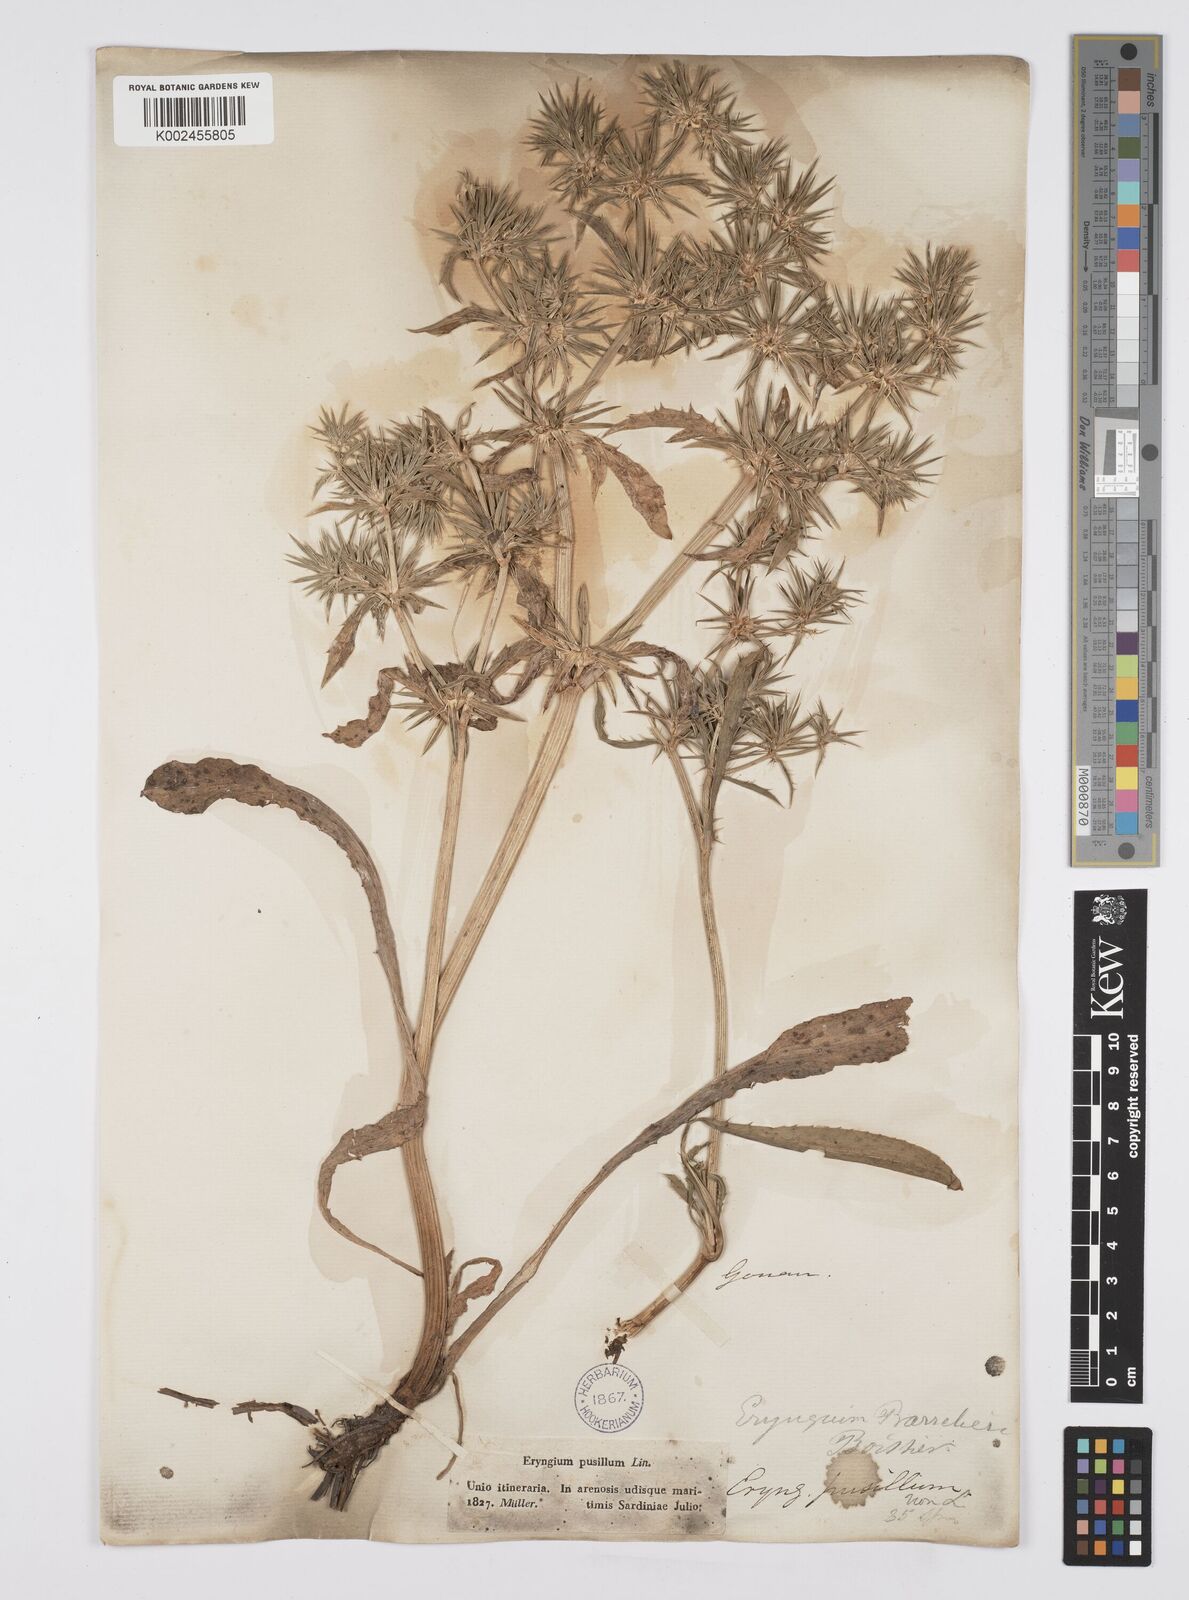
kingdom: Plantae
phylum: Tracheophyta
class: Magnoliopsida
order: Apiales
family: Apiaceae
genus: Eryngium
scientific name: Eryngium pusillum
